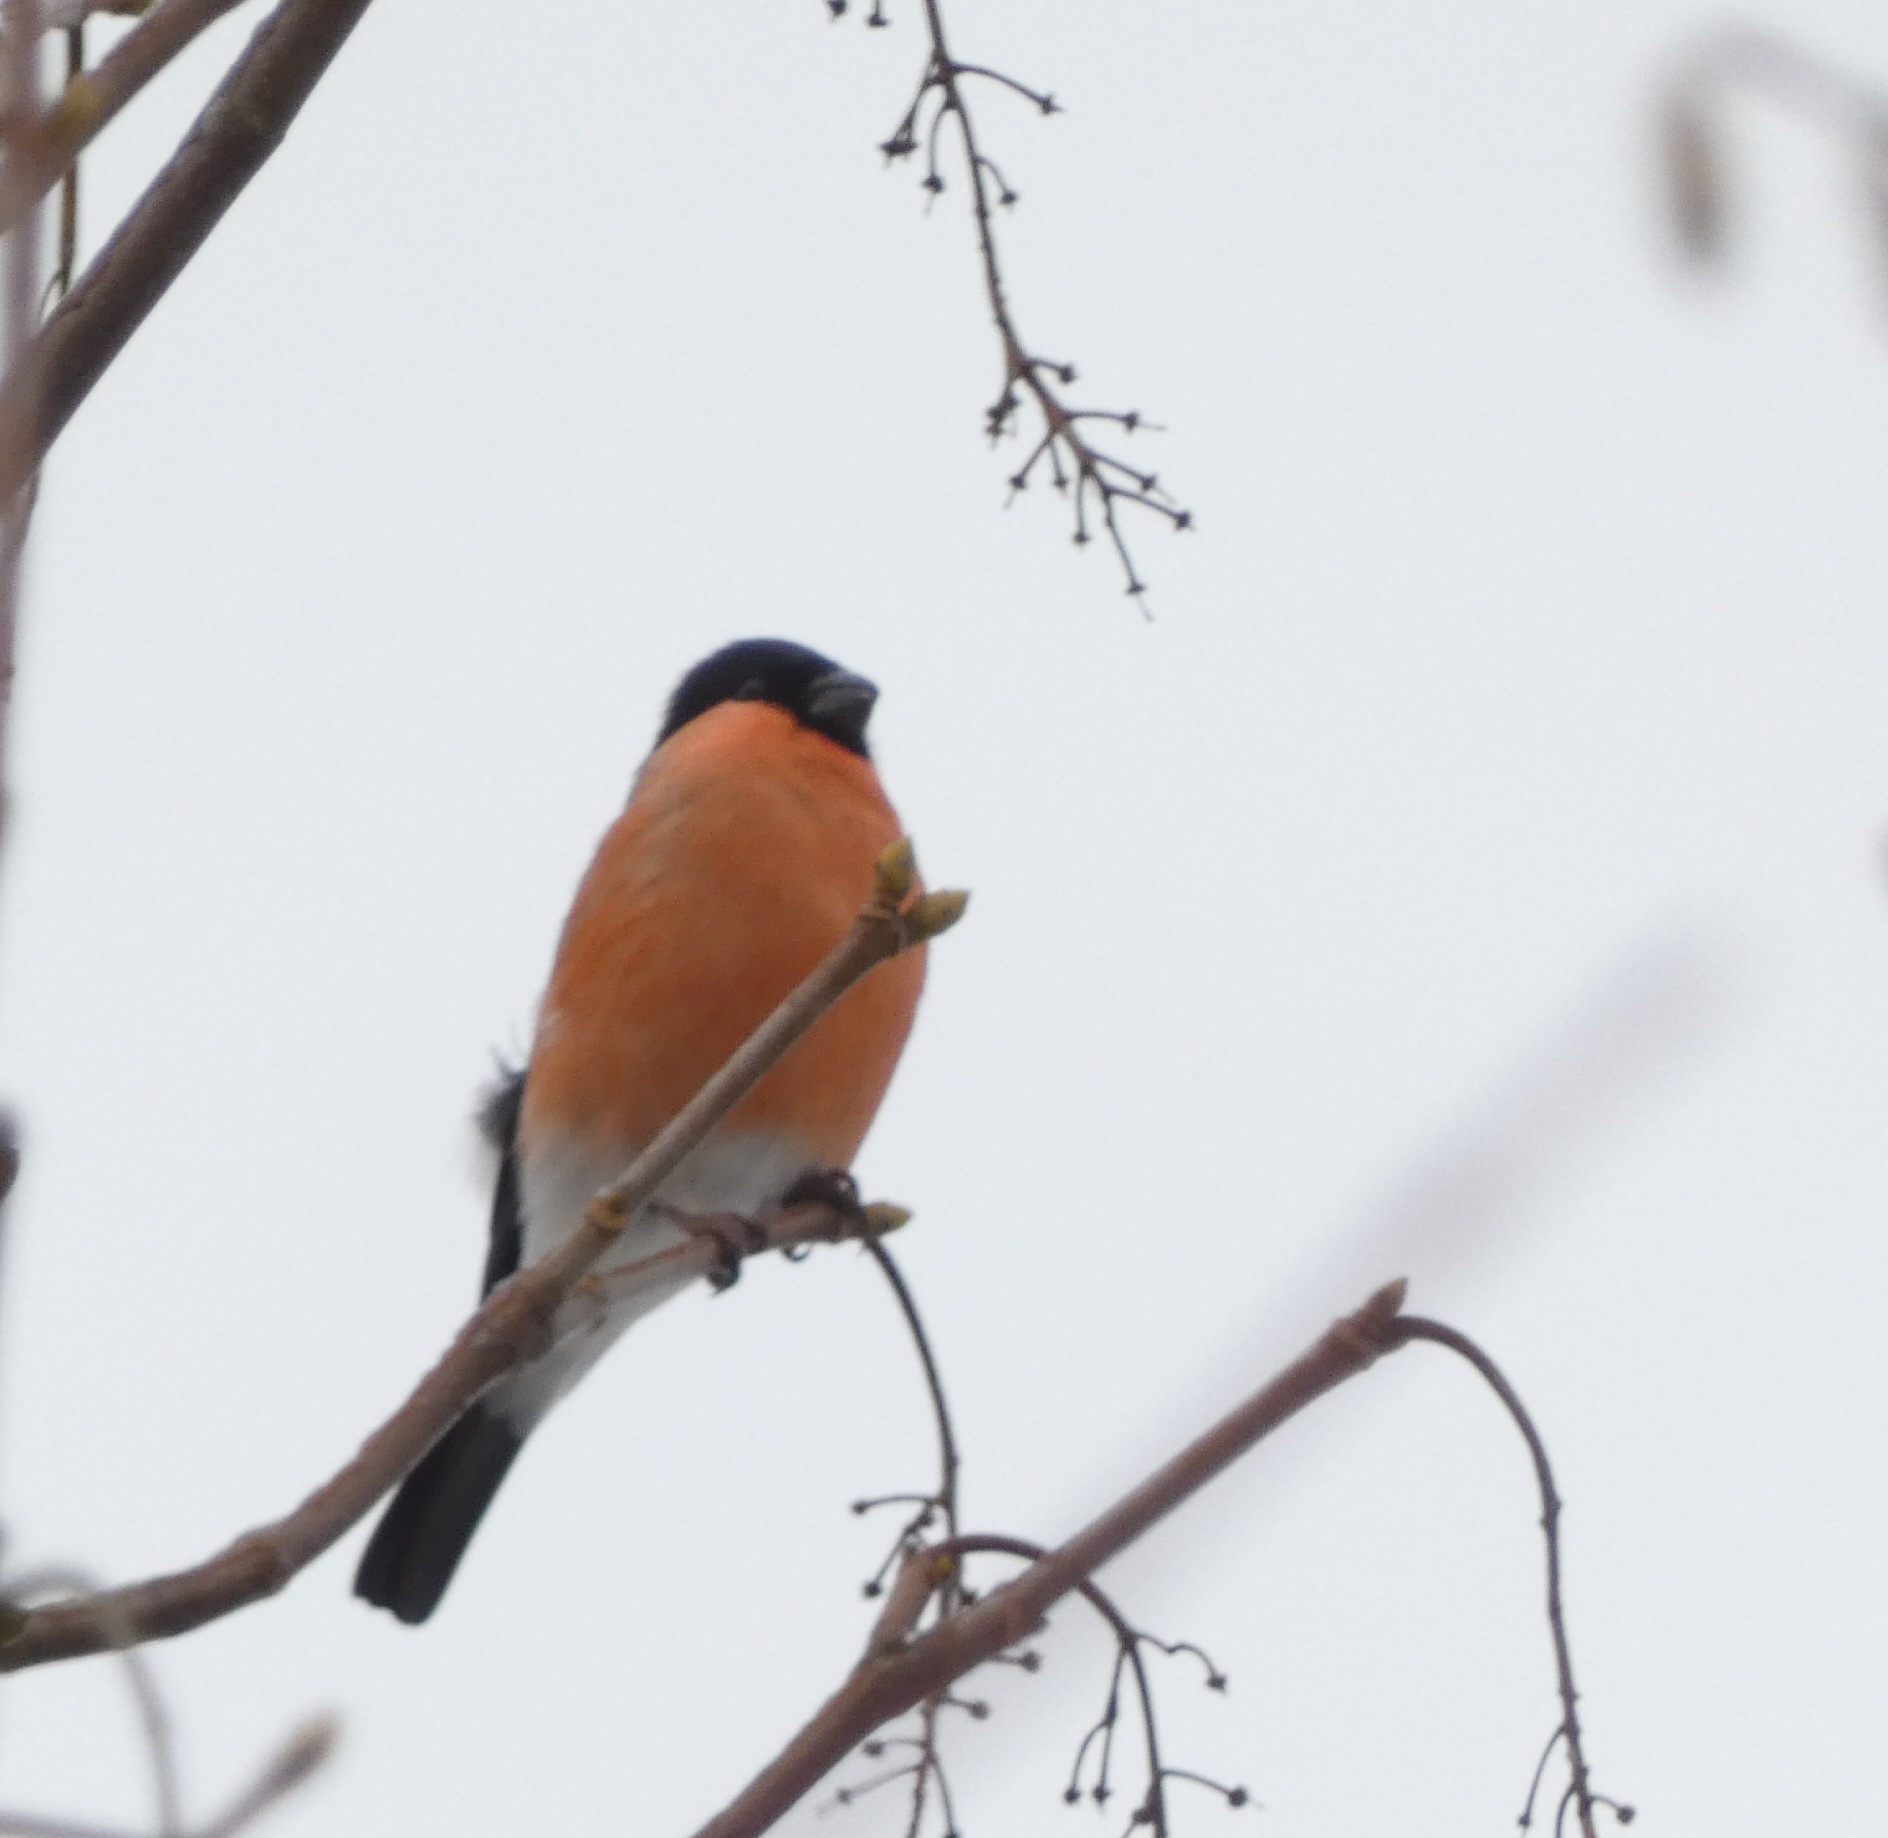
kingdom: Animalia
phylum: Chordata
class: Aves
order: Passeriformes
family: Fringillidae
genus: Pyrrhula
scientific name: Pyrrhula pyrrhula
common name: Dompap
